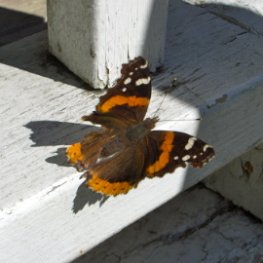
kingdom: Animalia
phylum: Arthropoda
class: Insecta
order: Lepidoptera
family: Nymphalidae
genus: Vanessa
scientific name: Vanessa atalanta
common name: Red Admiral
